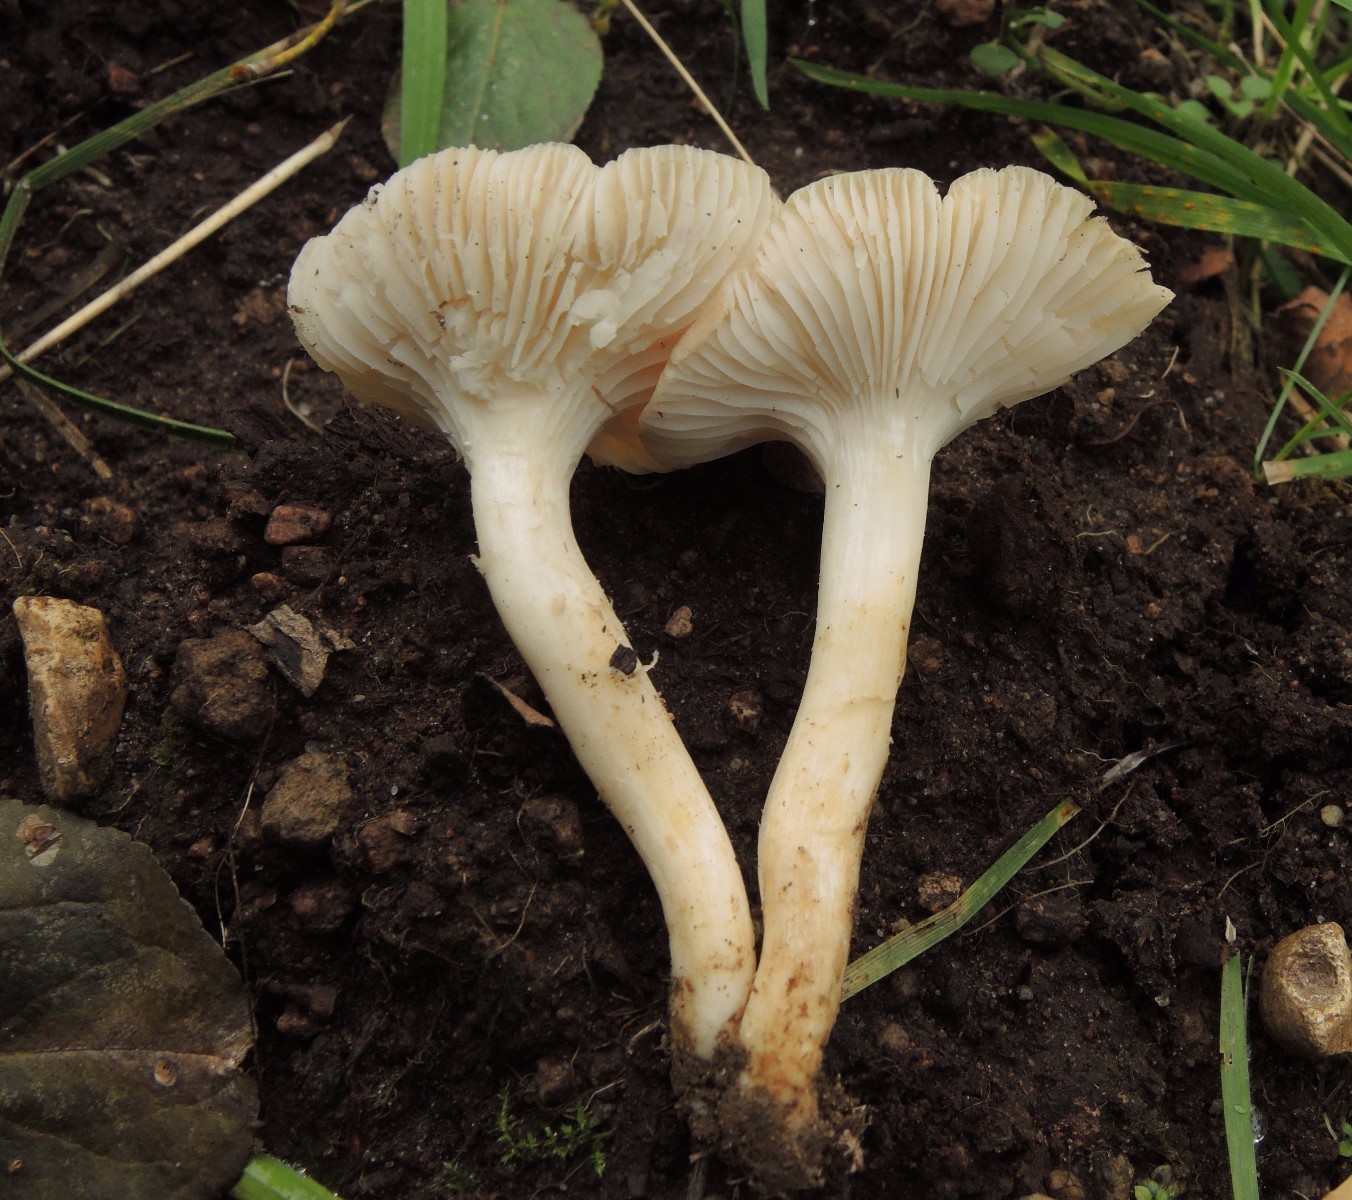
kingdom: Fungi
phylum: Basidiomycota
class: Agaricomycetes
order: Agaricales
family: Hygrophoraceae
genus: Cuphophyllus
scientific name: Cuphophyllus
